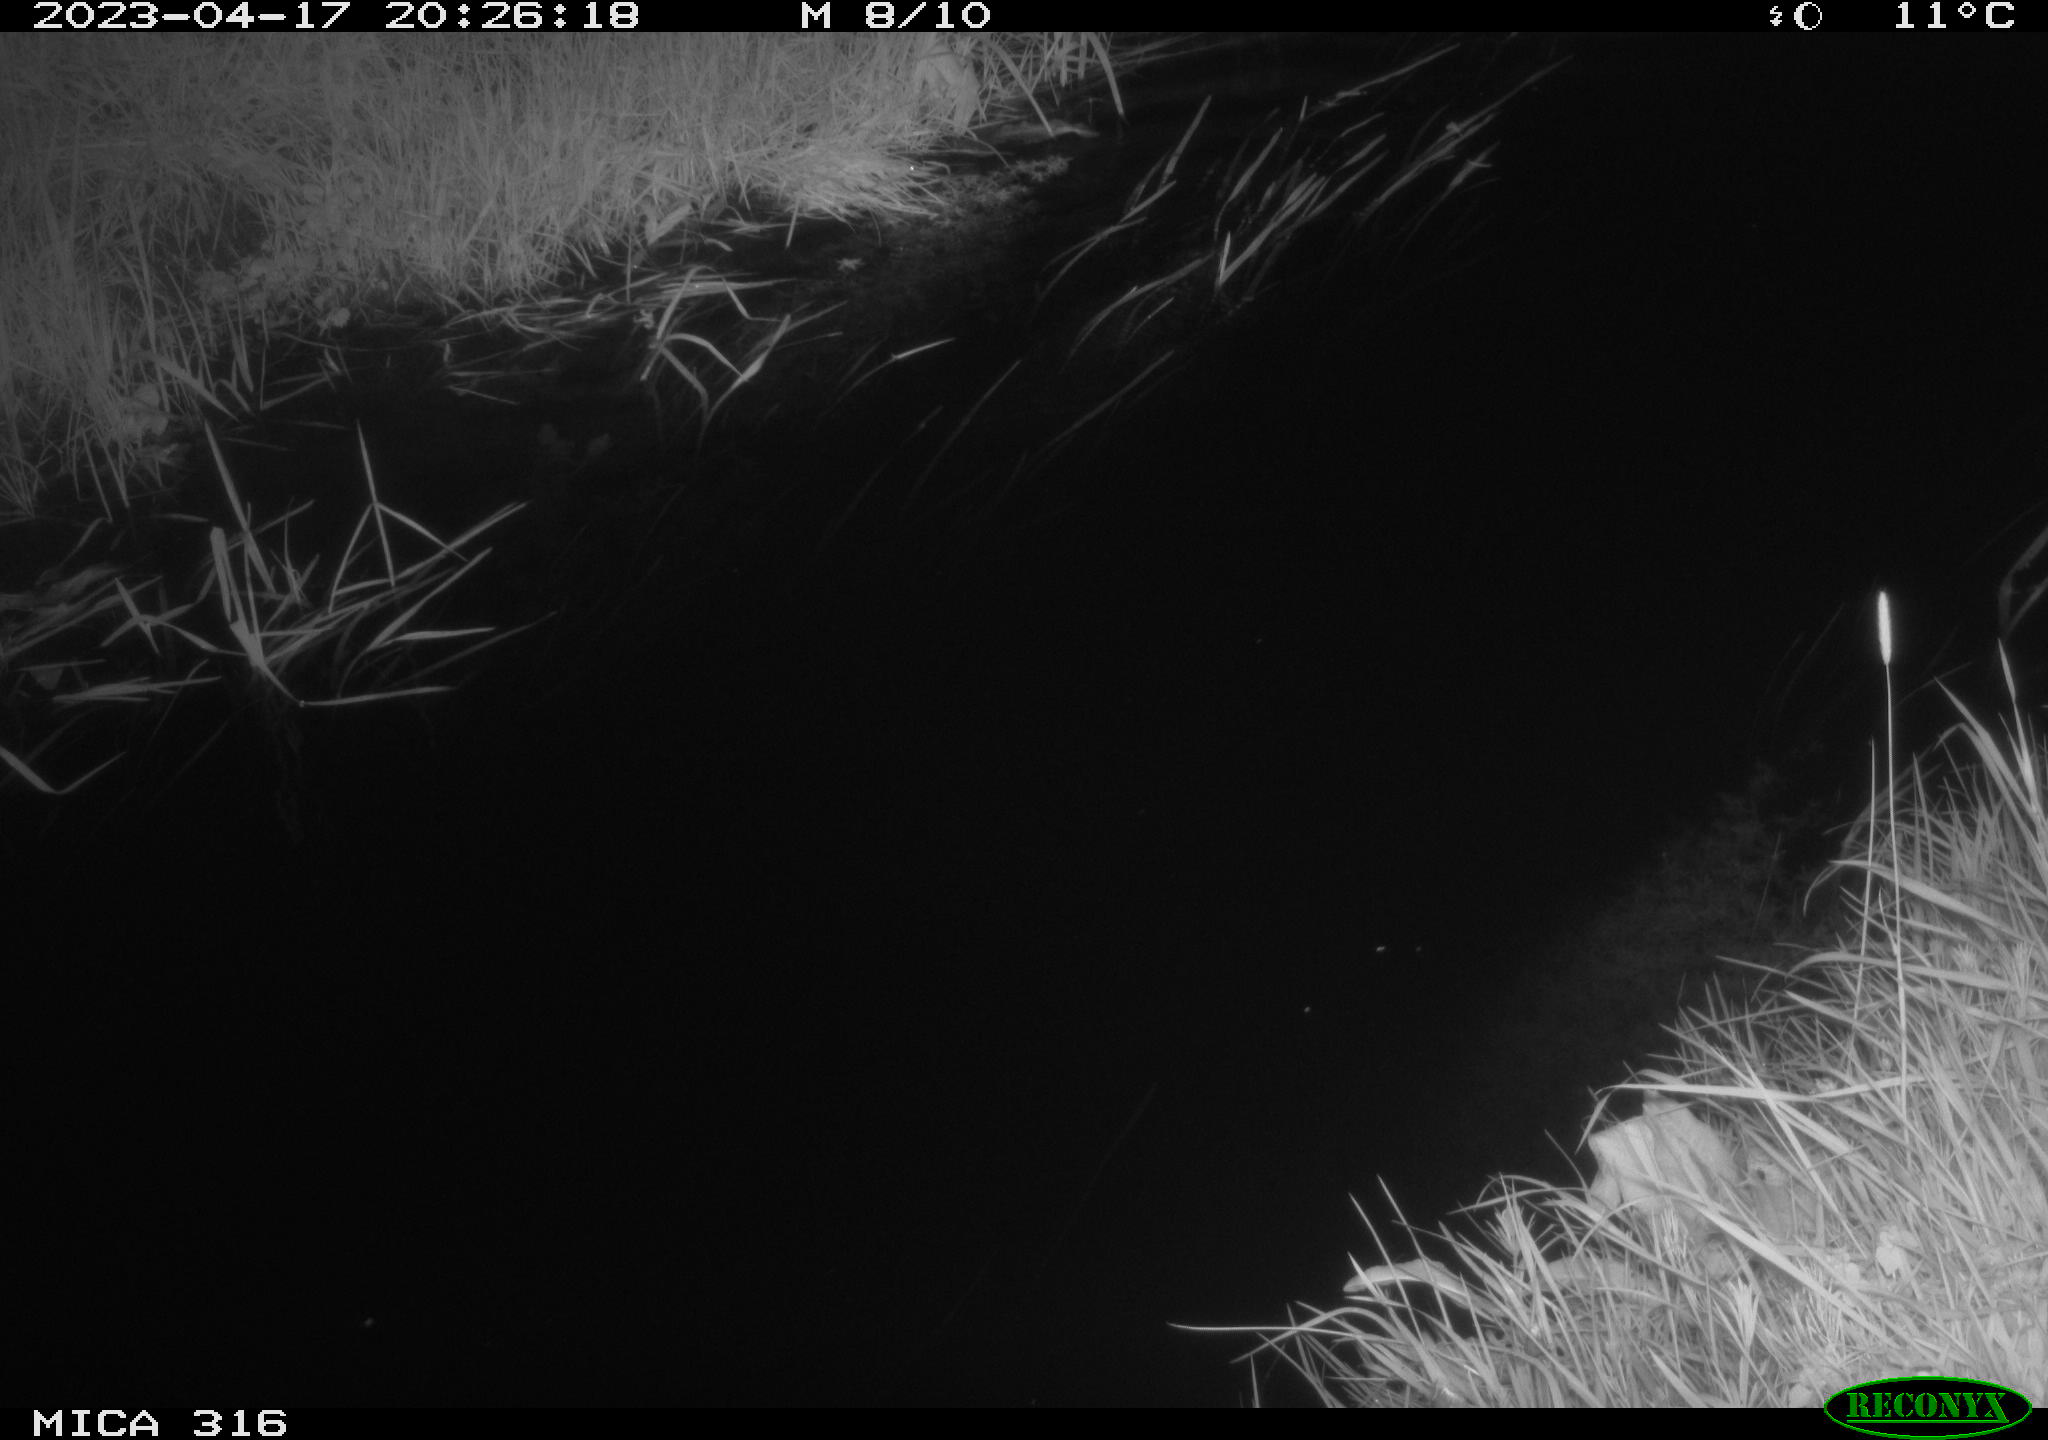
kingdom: Animalia
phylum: Chordata
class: Aves
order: Anseriformes
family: Anatidae
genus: Anas
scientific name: Anas
